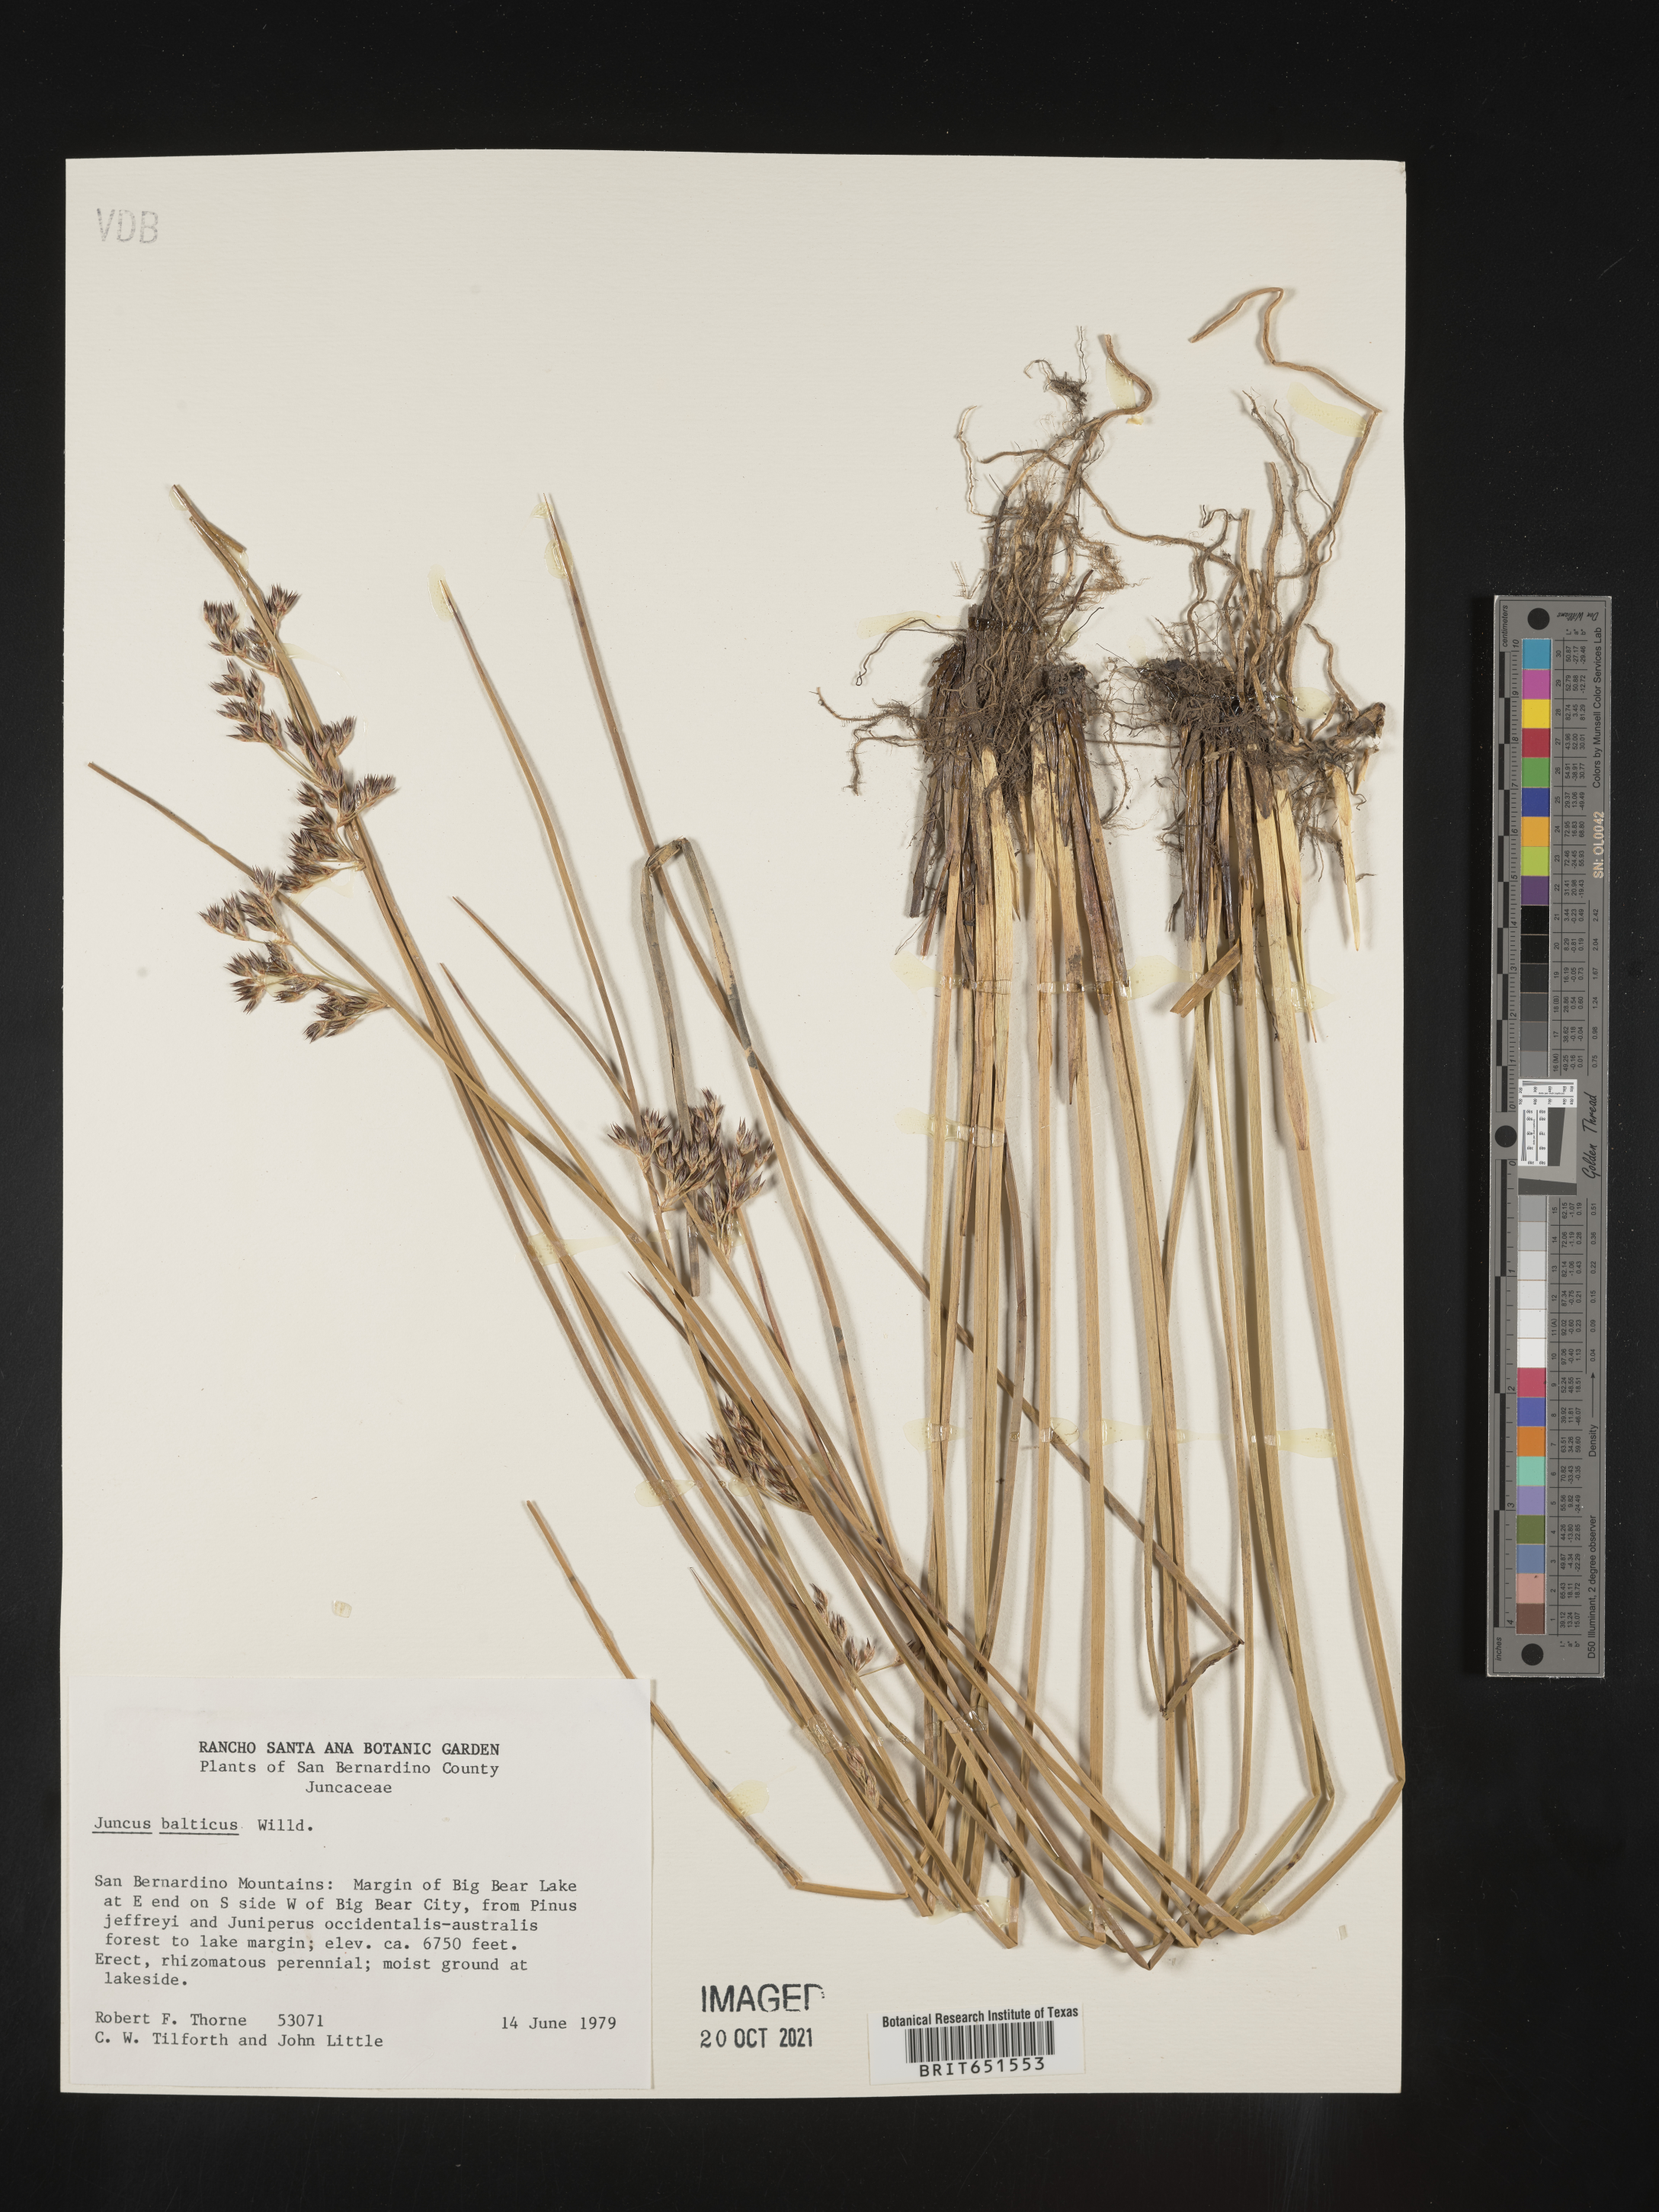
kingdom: Plantae
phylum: Tracheophyta
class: Liliopsida
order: Poales
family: Juncaceae
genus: Juncus
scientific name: Juncus balticus
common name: Baltic rush
